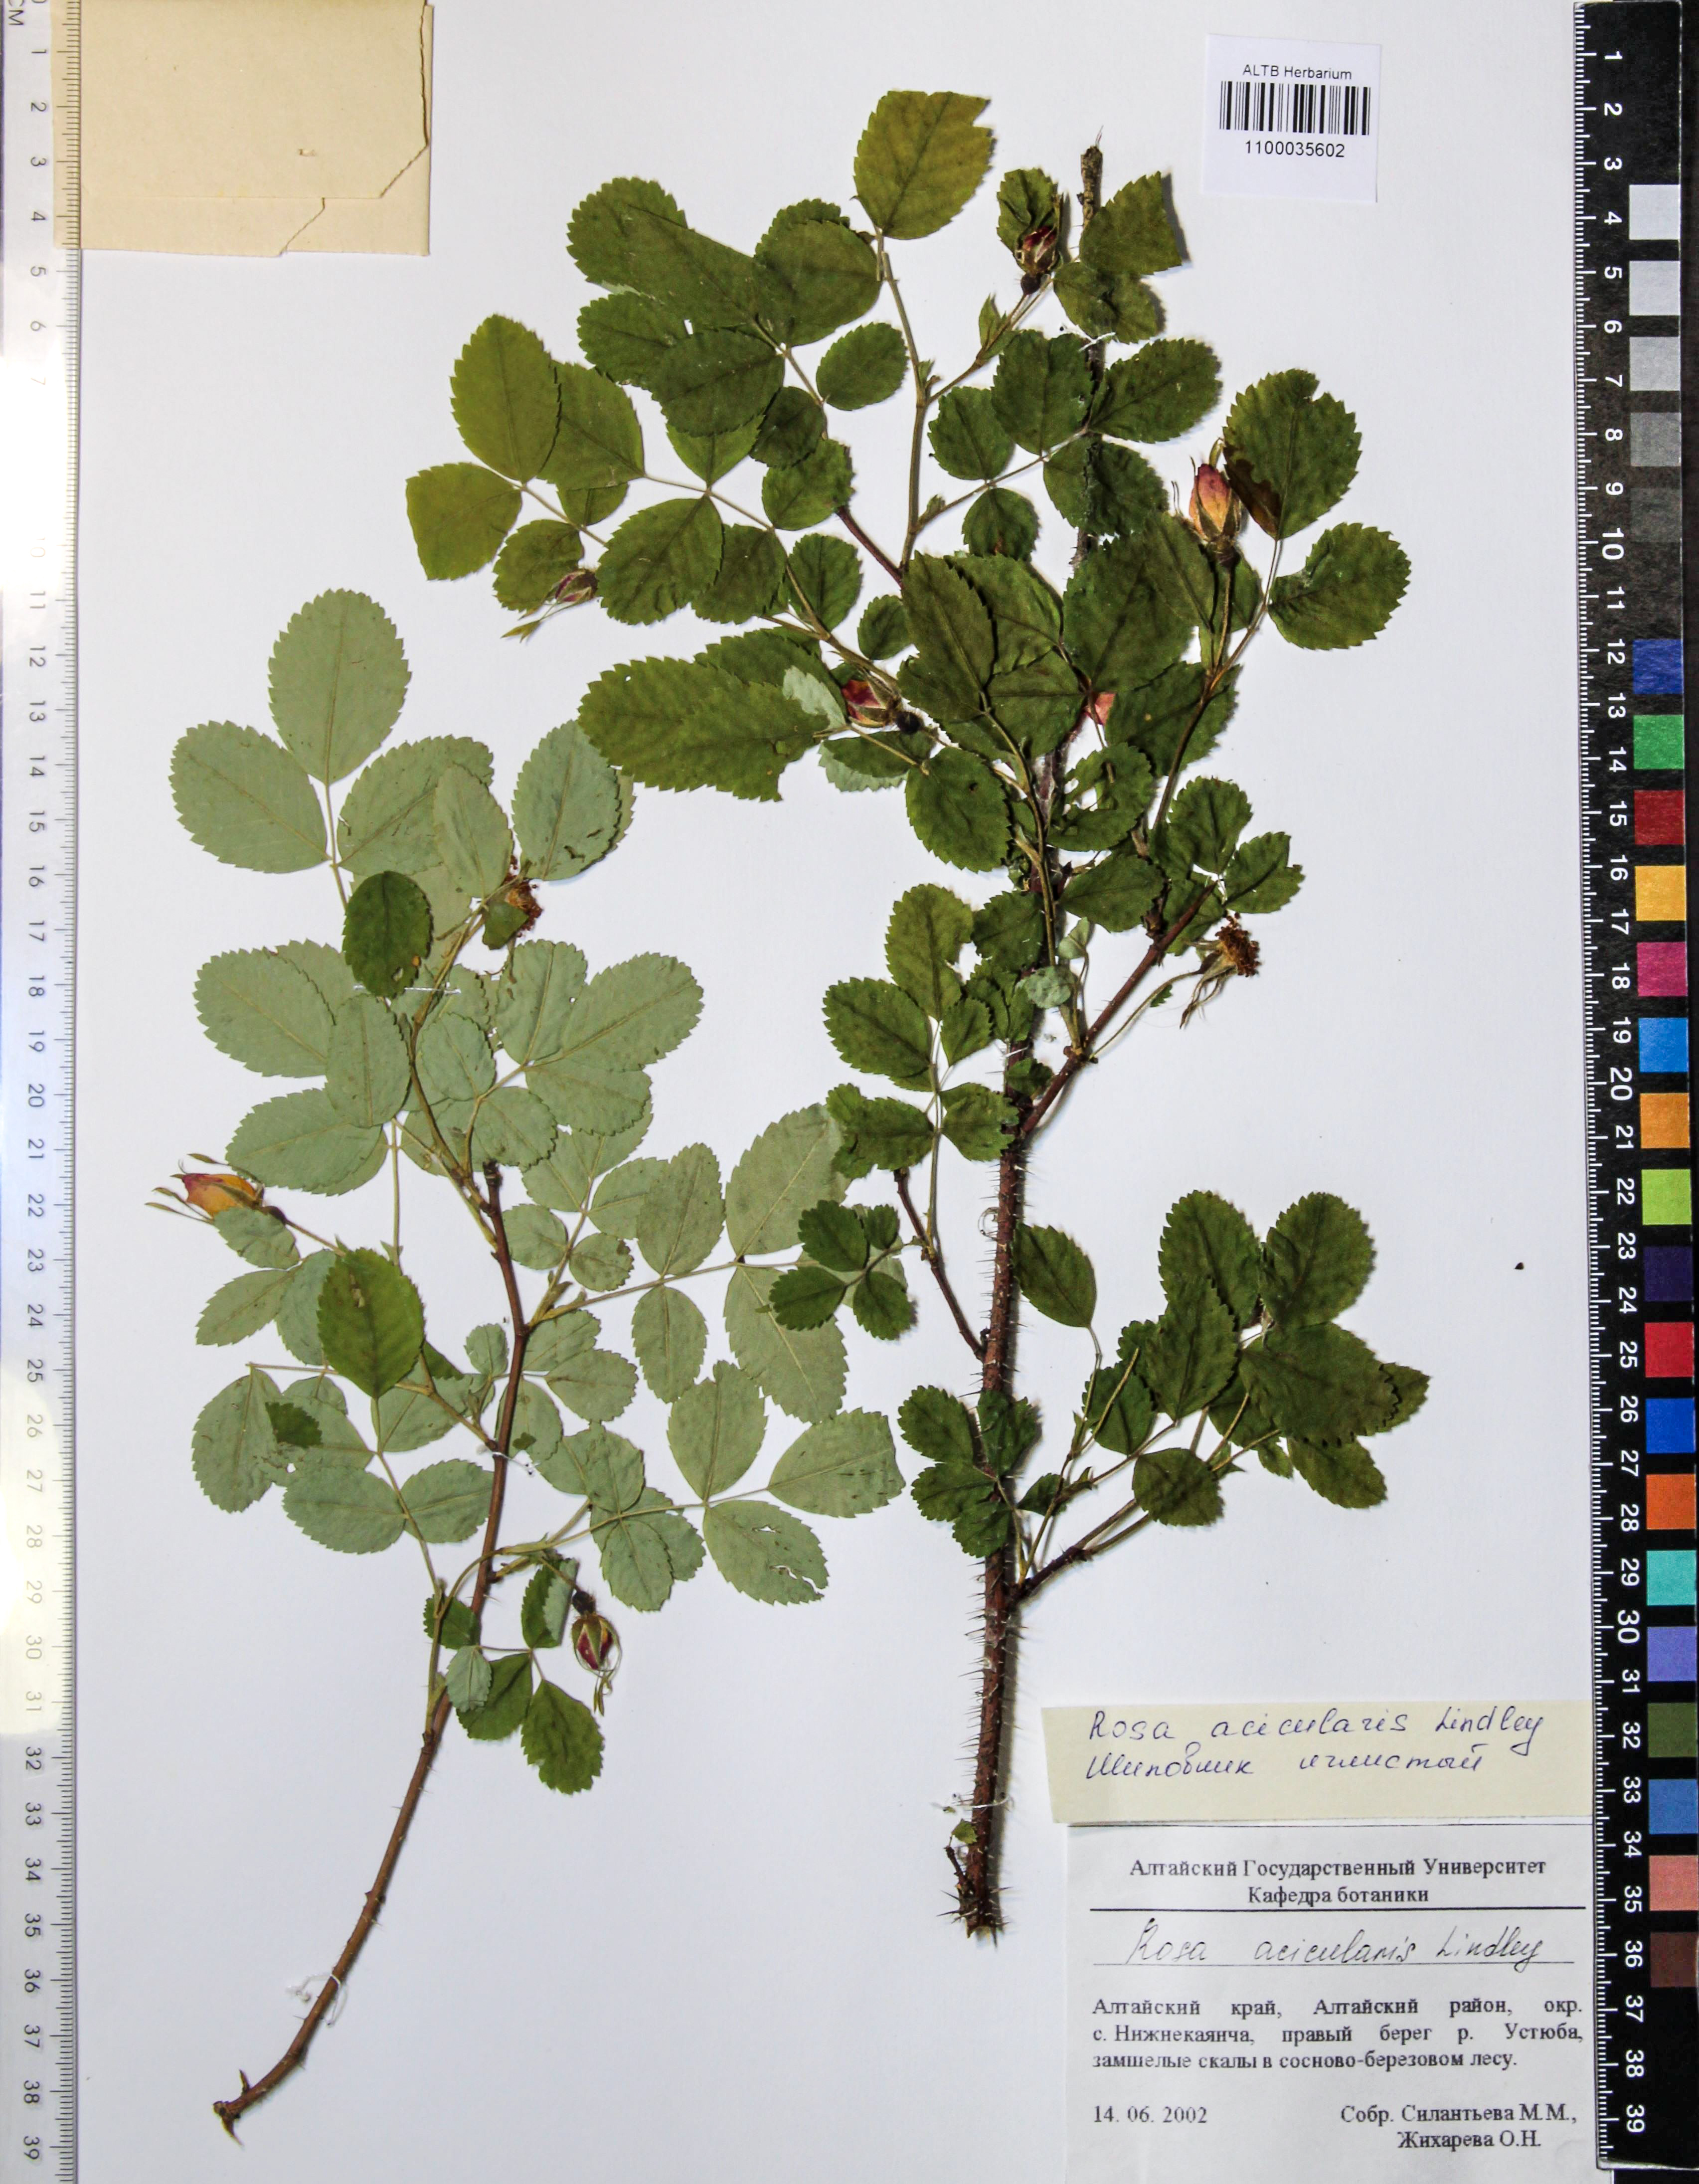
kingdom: Plantae
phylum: Tracheophyta
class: Magnoliopsida
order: Rosales
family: Rosaceae
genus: Rosa
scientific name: Rosa acicularis
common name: Prickly rose
